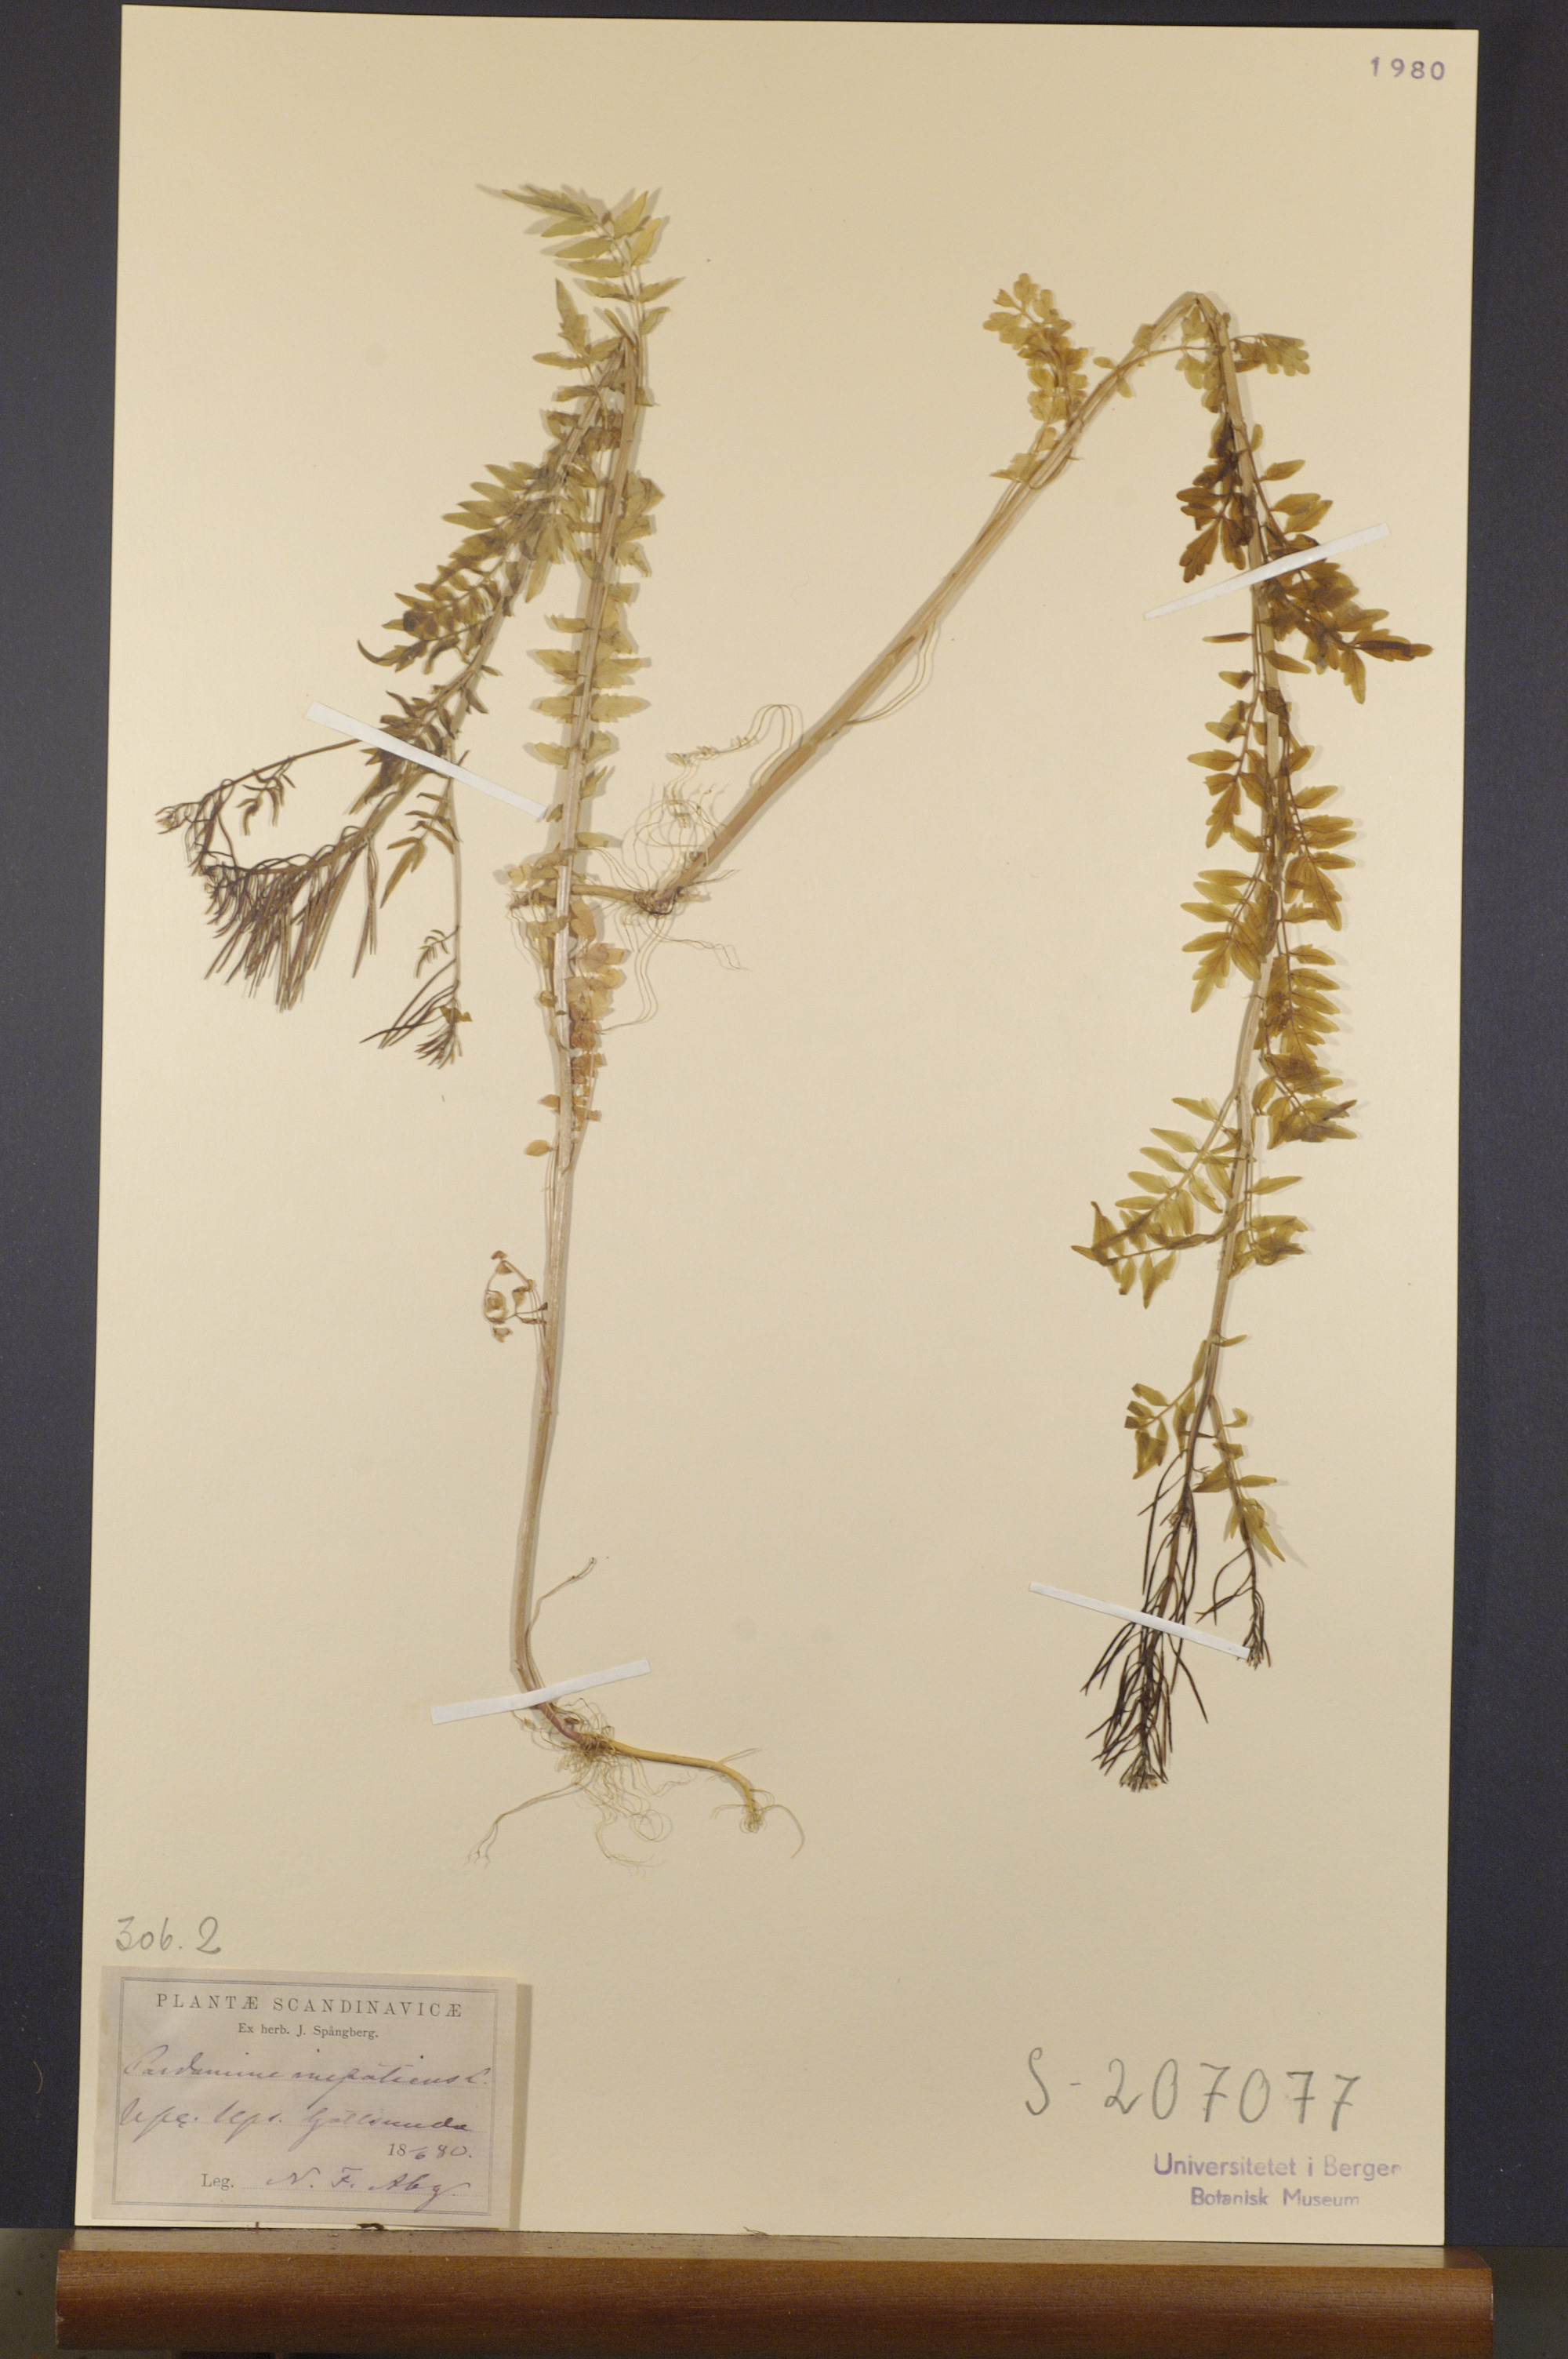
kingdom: Plantae
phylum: Tracheophyta
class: Magnoliopsida
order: Brassicales
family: Brassicaceae
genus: Cardamine
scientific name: Cardamine impatiens
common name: Narrow-leaved bitter-cress
